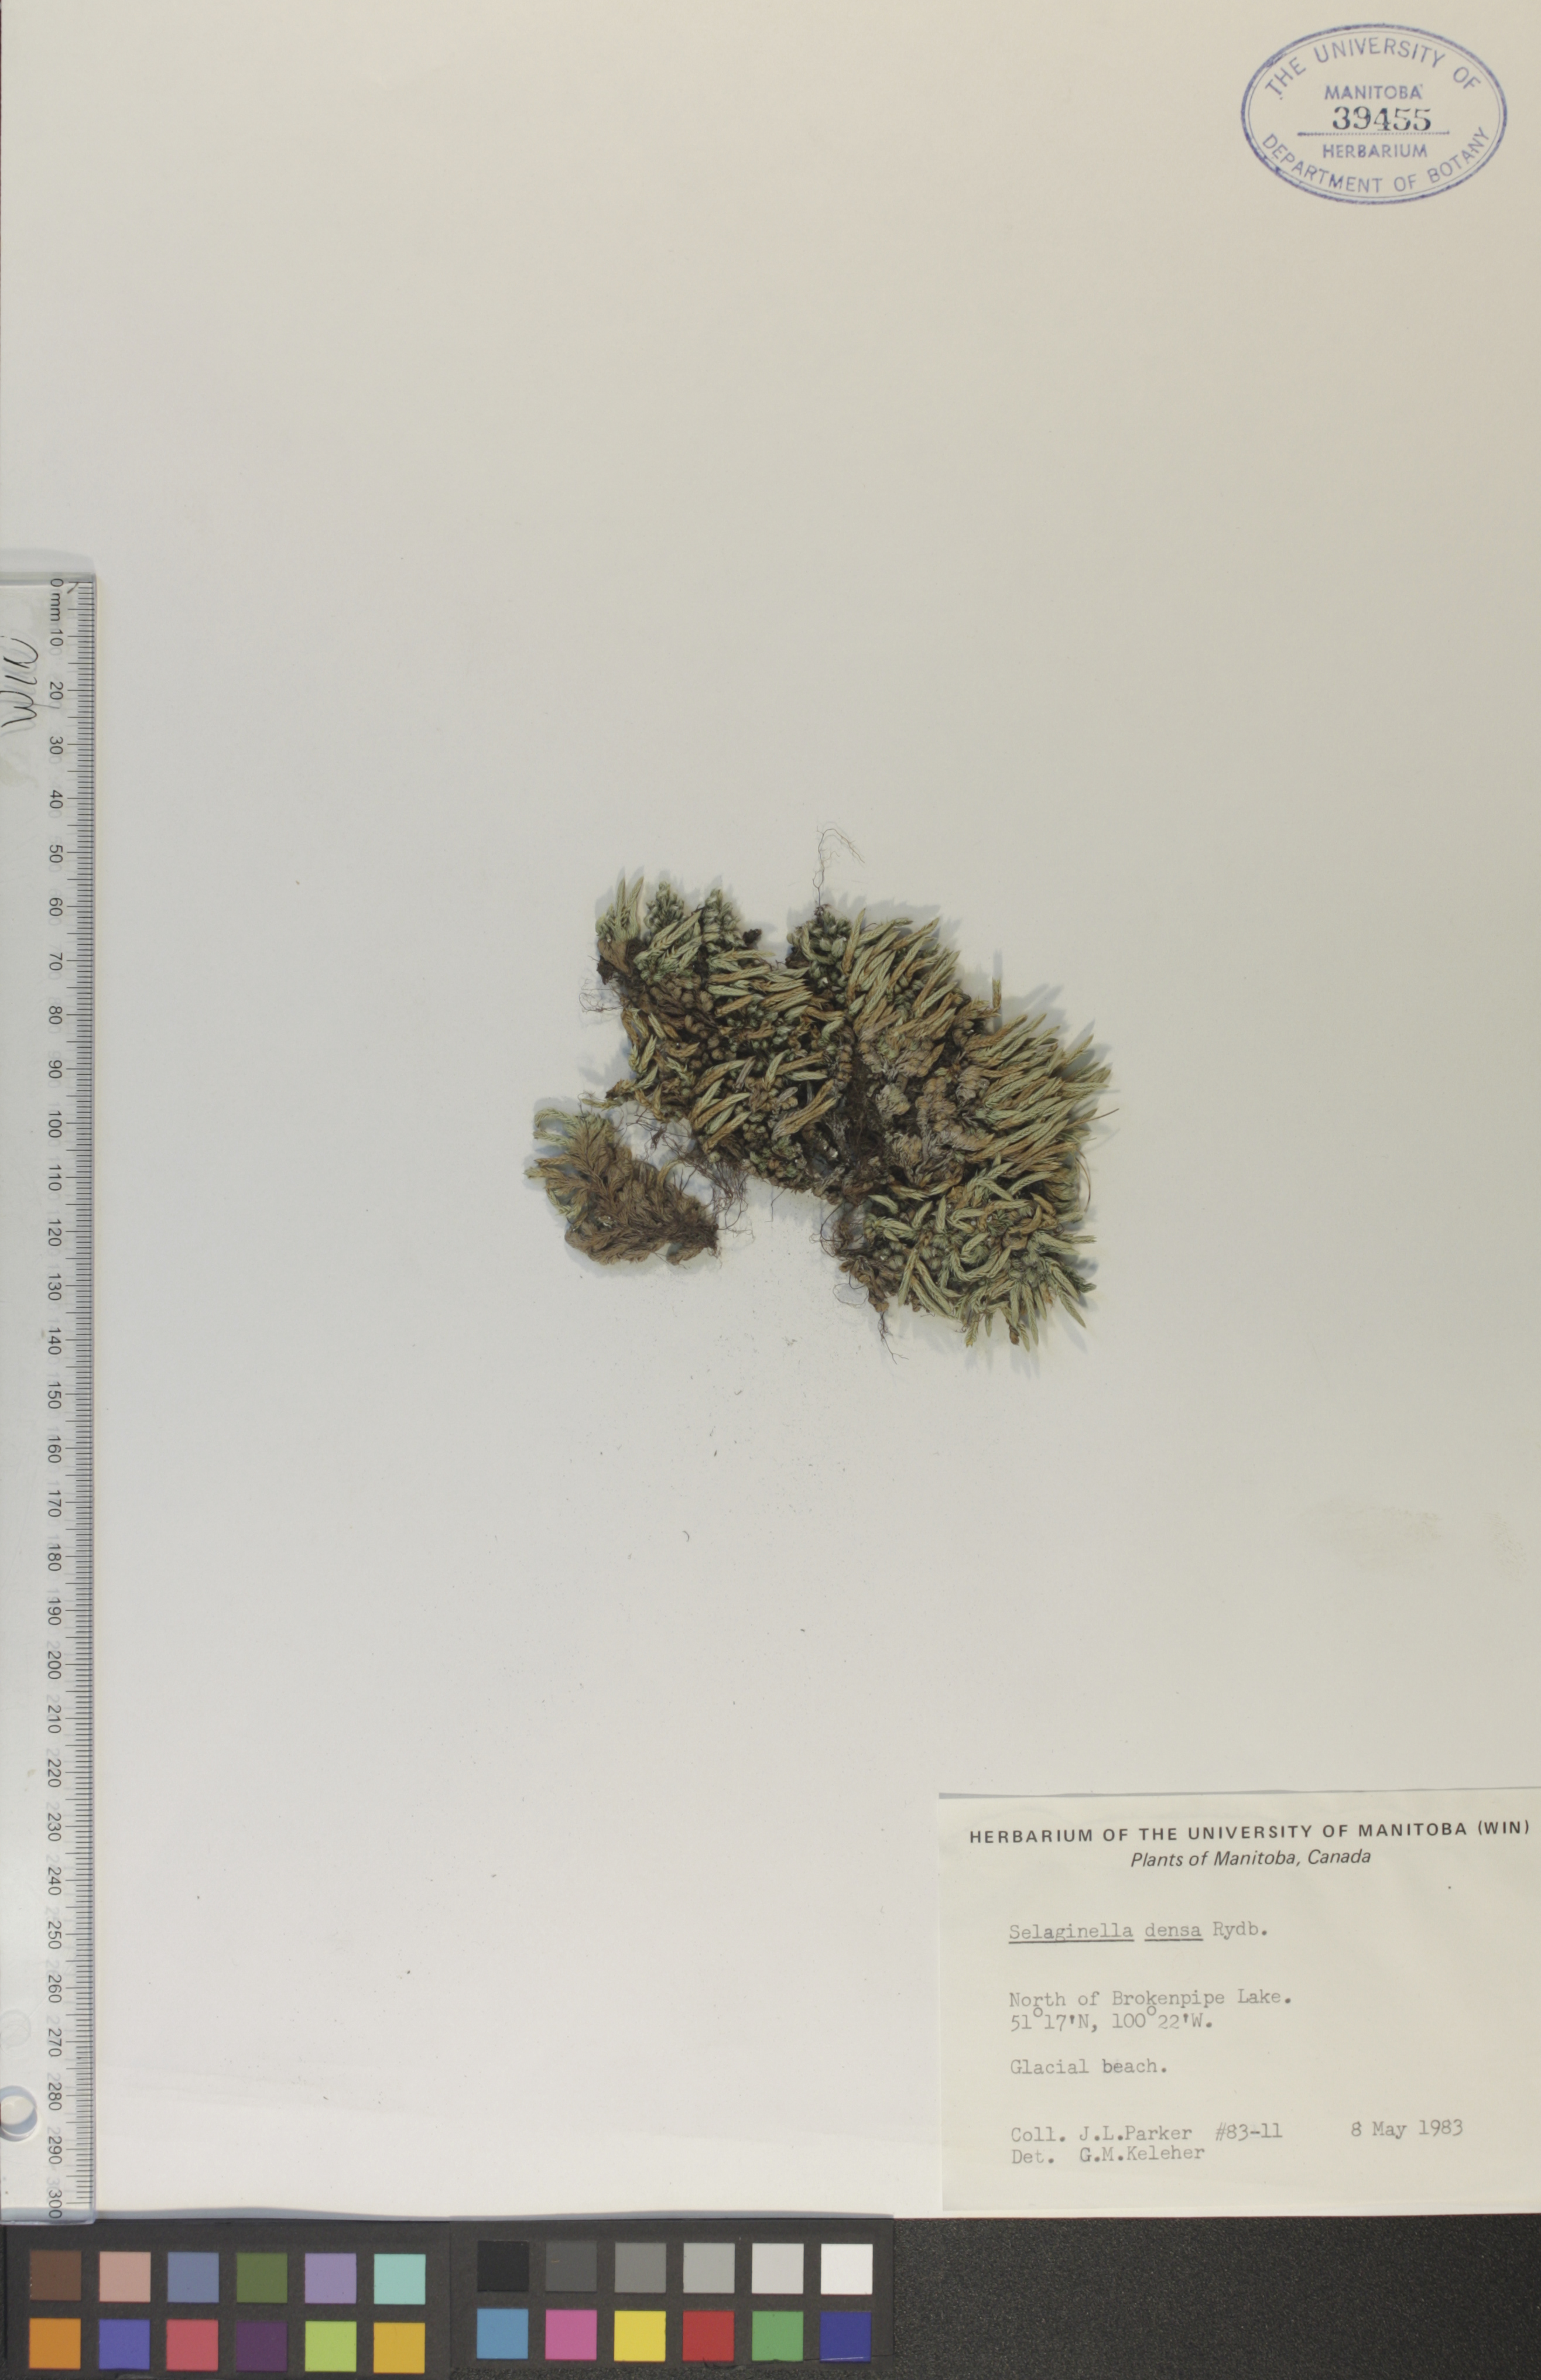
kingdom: Plantae
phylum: Tracheophyta
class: Lycopodiopsida
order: Selaginellales
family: Selaginellaceae
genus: Selaginella
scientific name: Selaginella densa
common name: Mountain spike-moss
